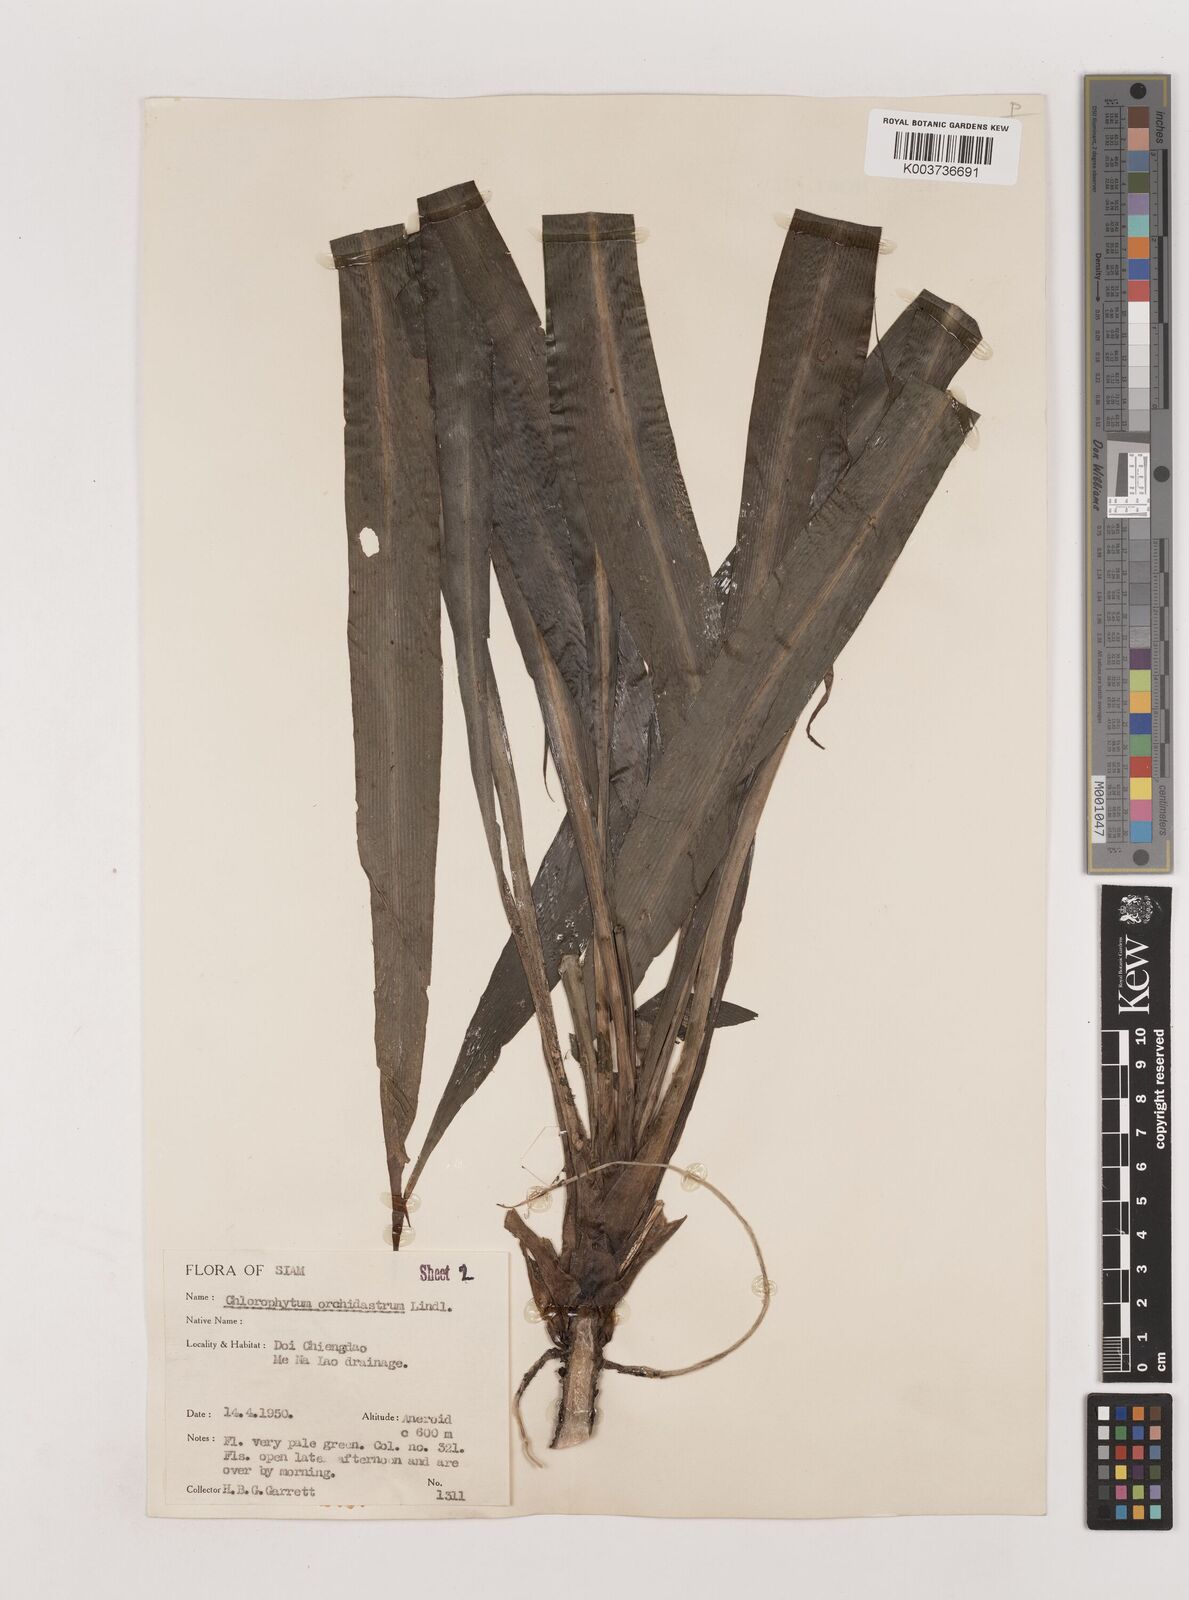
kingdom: Plantae
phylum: Tracheophyta
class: Liliopsida
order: Asparagales
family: Asparagaceae
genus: Chlorophytum
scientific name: Chlorophytum
